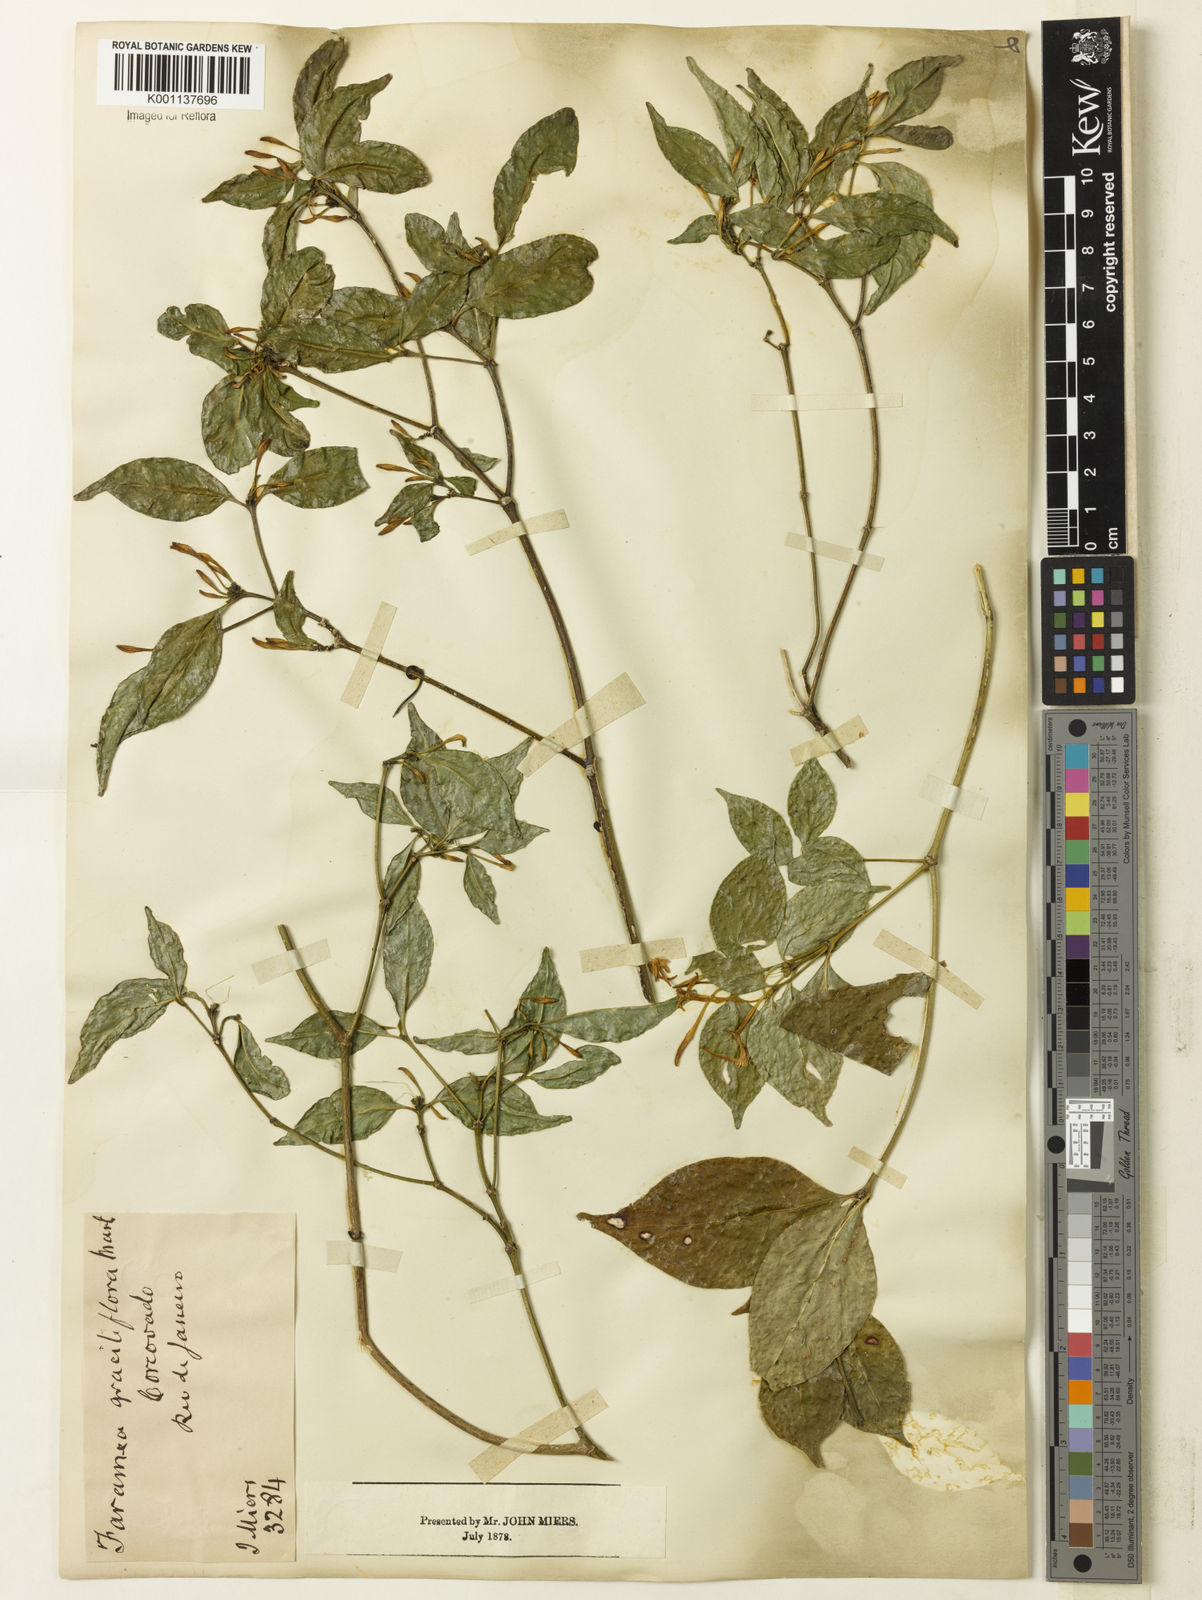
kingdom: Plantae
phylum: Tracheophyta
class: Magnoliopsida
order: Gentianales
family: Rubiaceae
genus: Coussarea
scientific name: Coussarea
